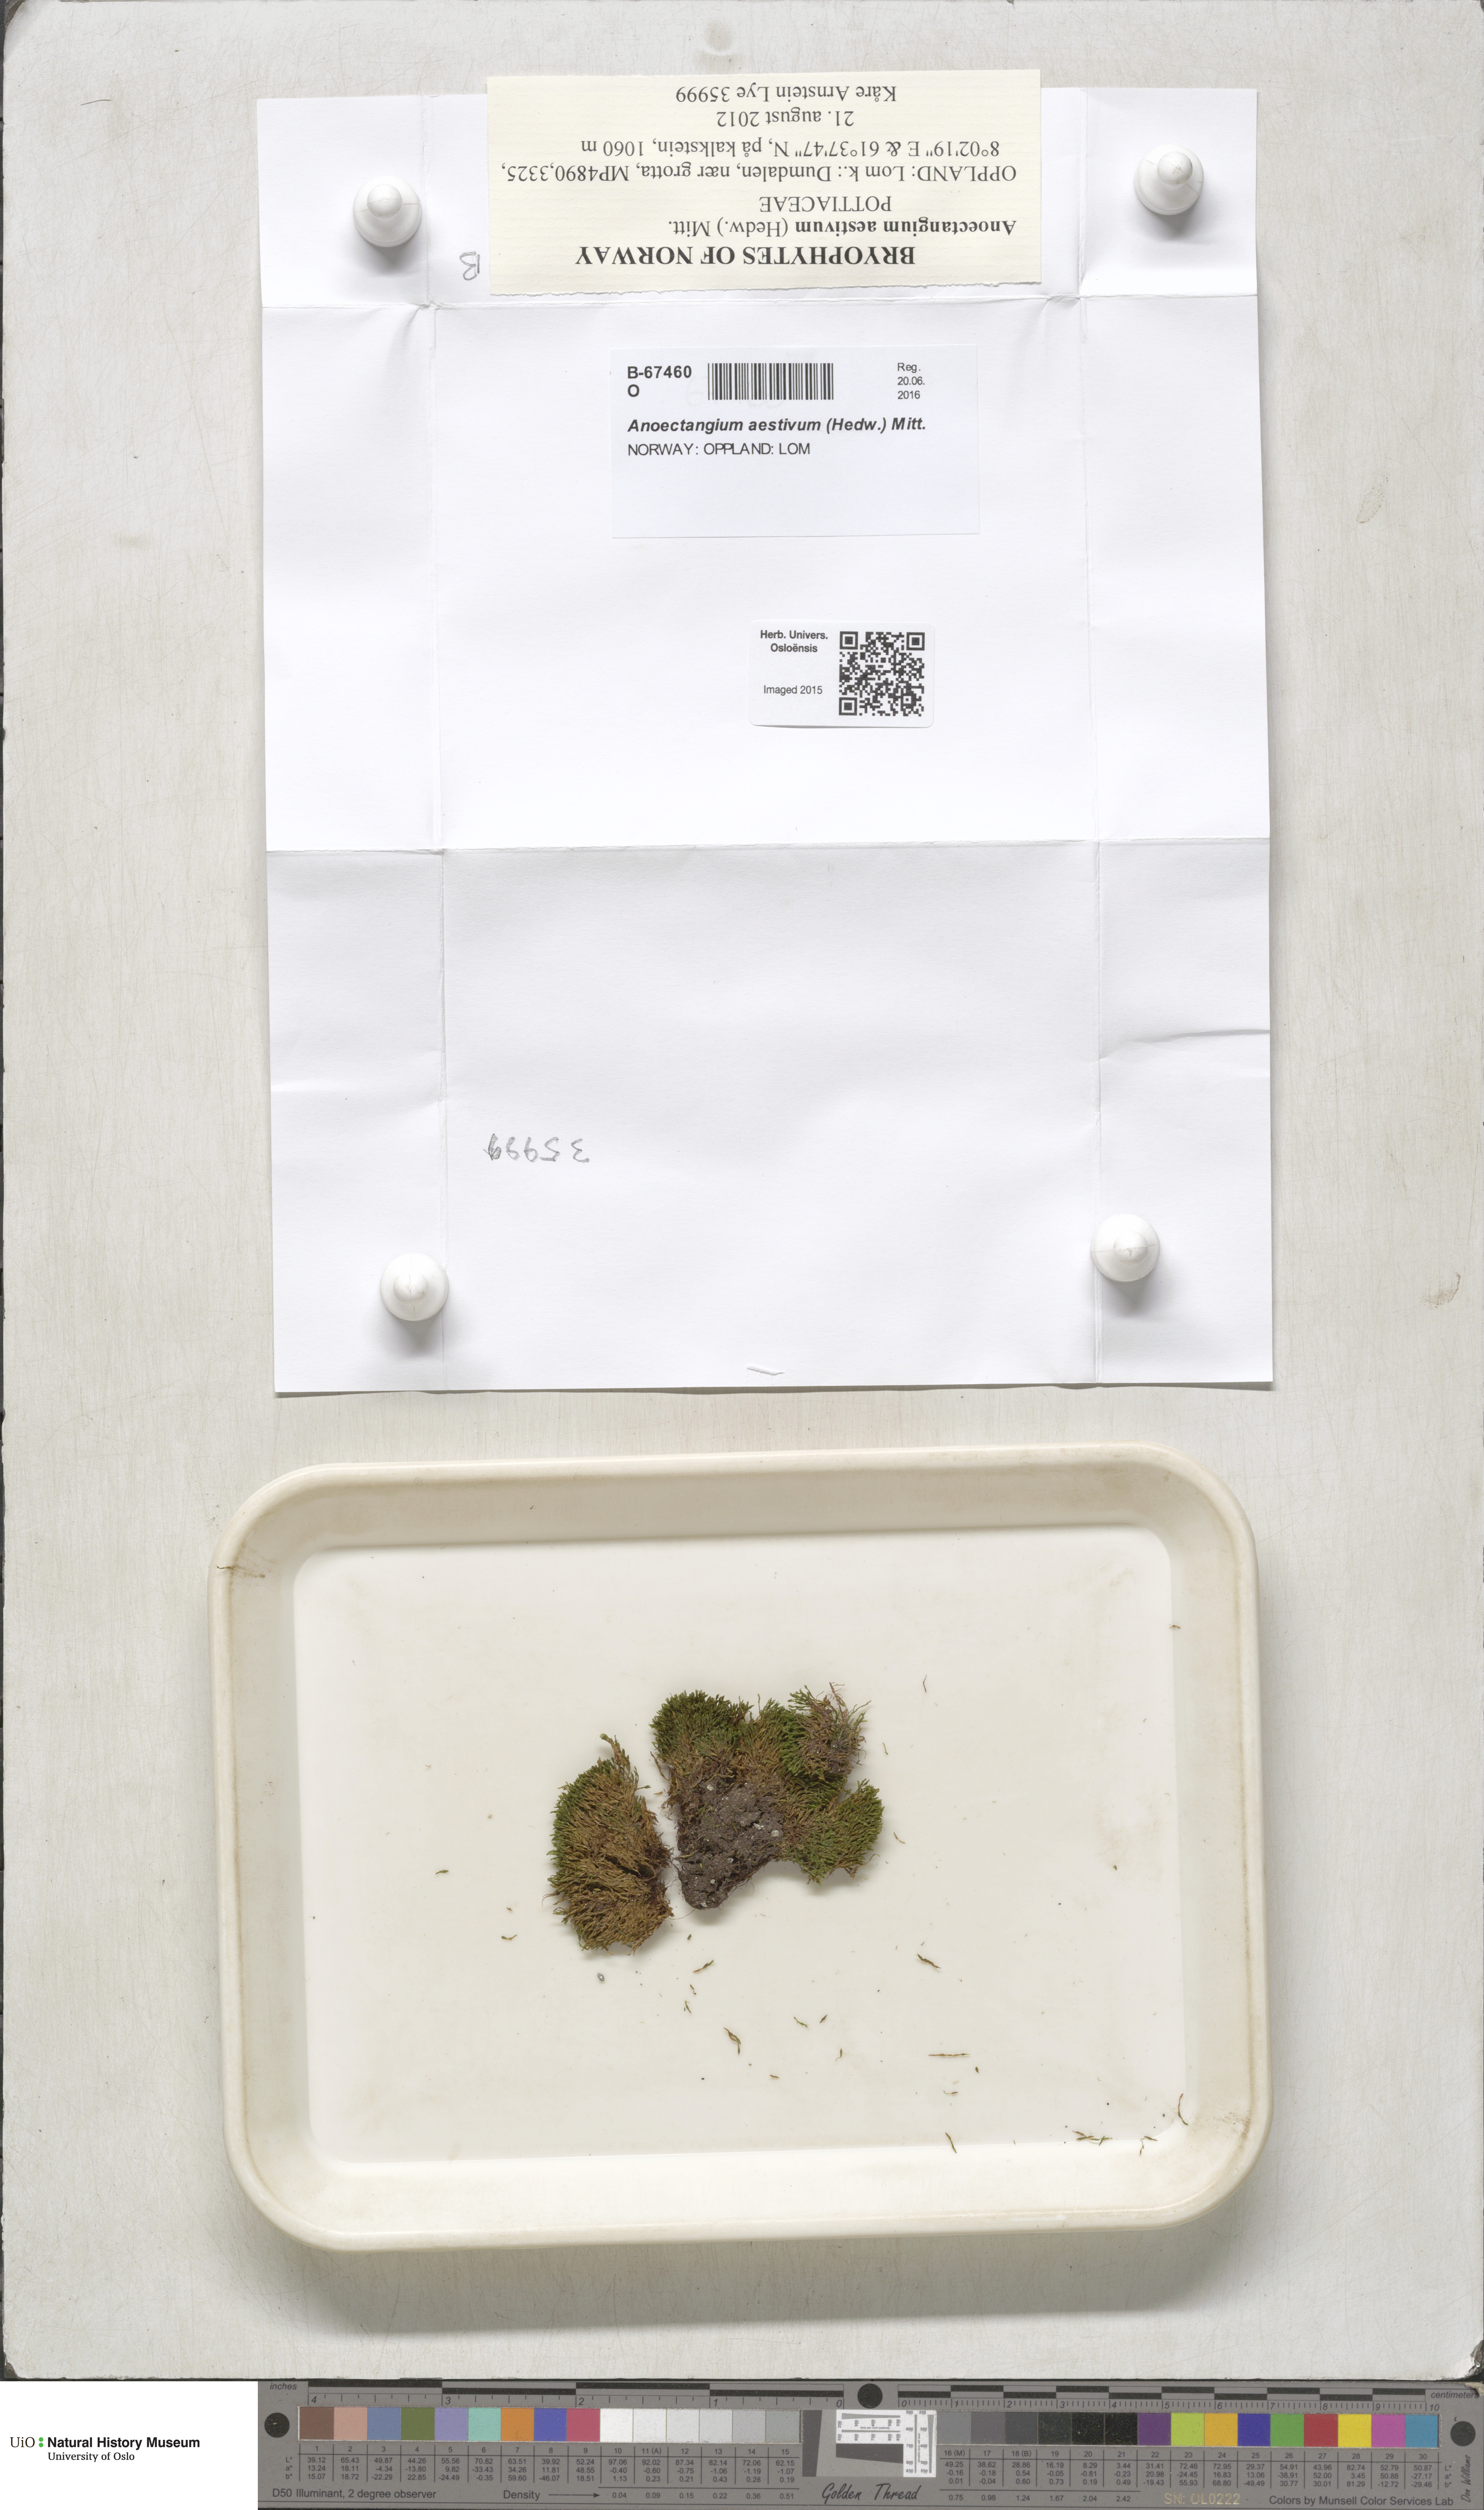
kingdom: Plantae
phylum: Bryophyta
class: Bryopsida
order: Pottiales
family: Pottiaceae
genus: Anoectangium
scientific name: Anoectangium aestivum
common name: Summer-moss
